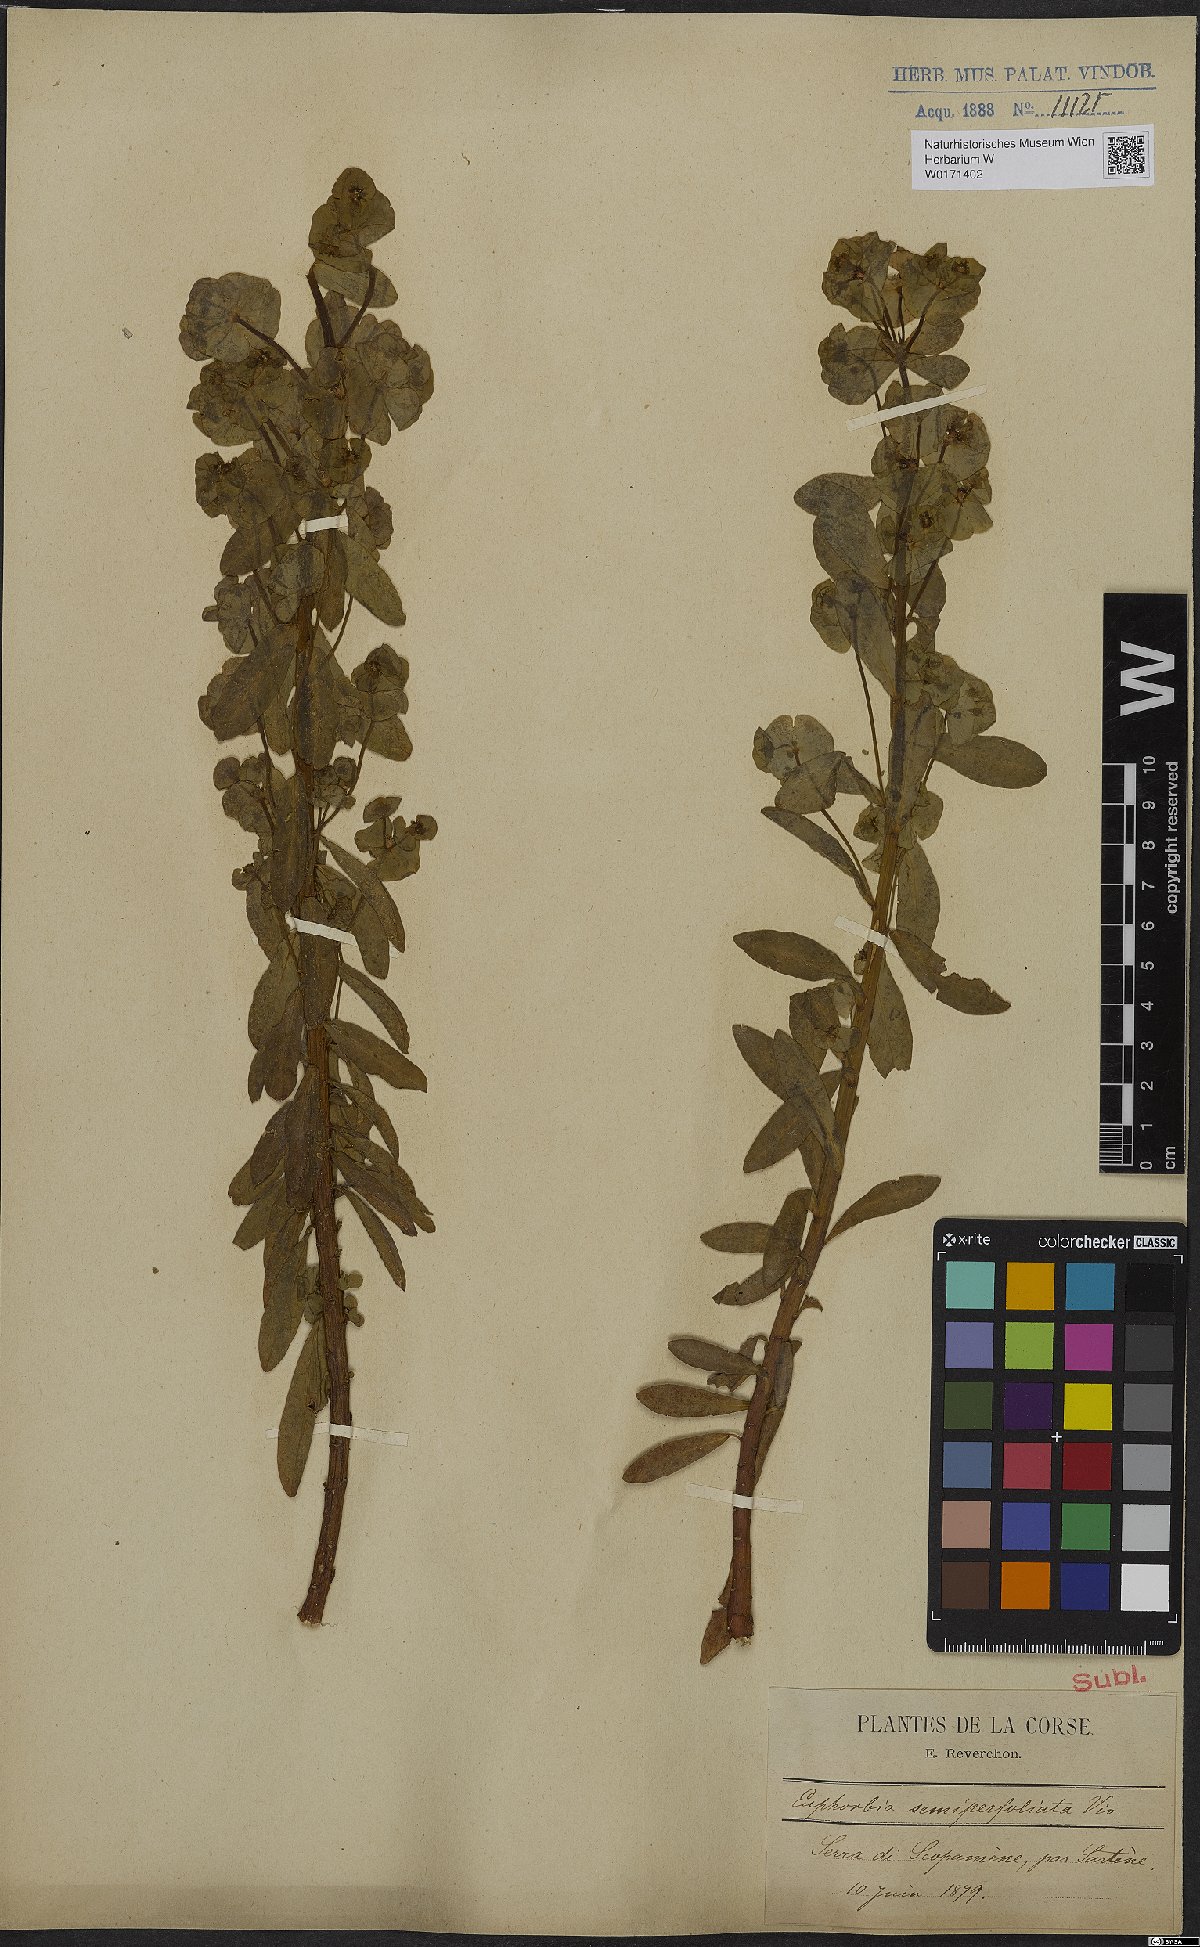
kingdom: Plantae
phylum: Tracheophyta
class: Magnoliopsida
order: Malpighiales
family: Euphorbiaceae
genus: Euphorbia
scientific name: Euphorbia semiperfoliata
